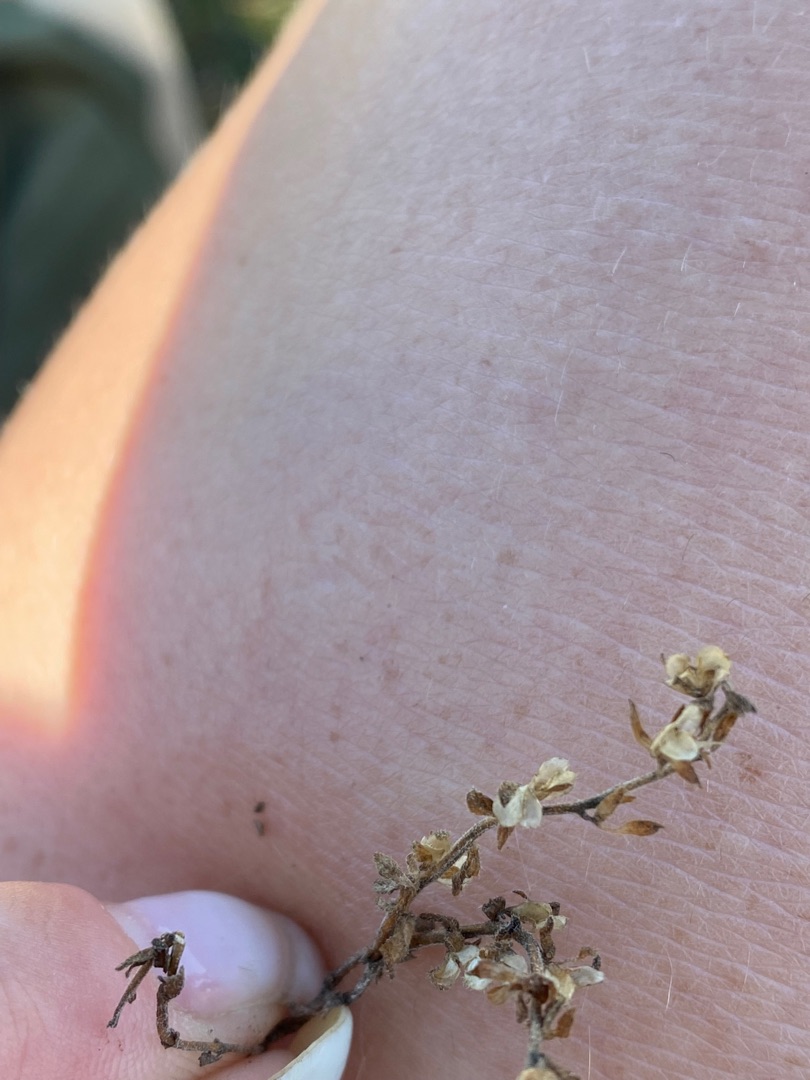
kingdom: Plantae
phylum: Tracheophyta
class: Magnoliopsida
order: Lamiales
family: Plantaginaceae
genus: Veronica
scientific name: Veronica arvensis
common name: Mark-ærenpris
